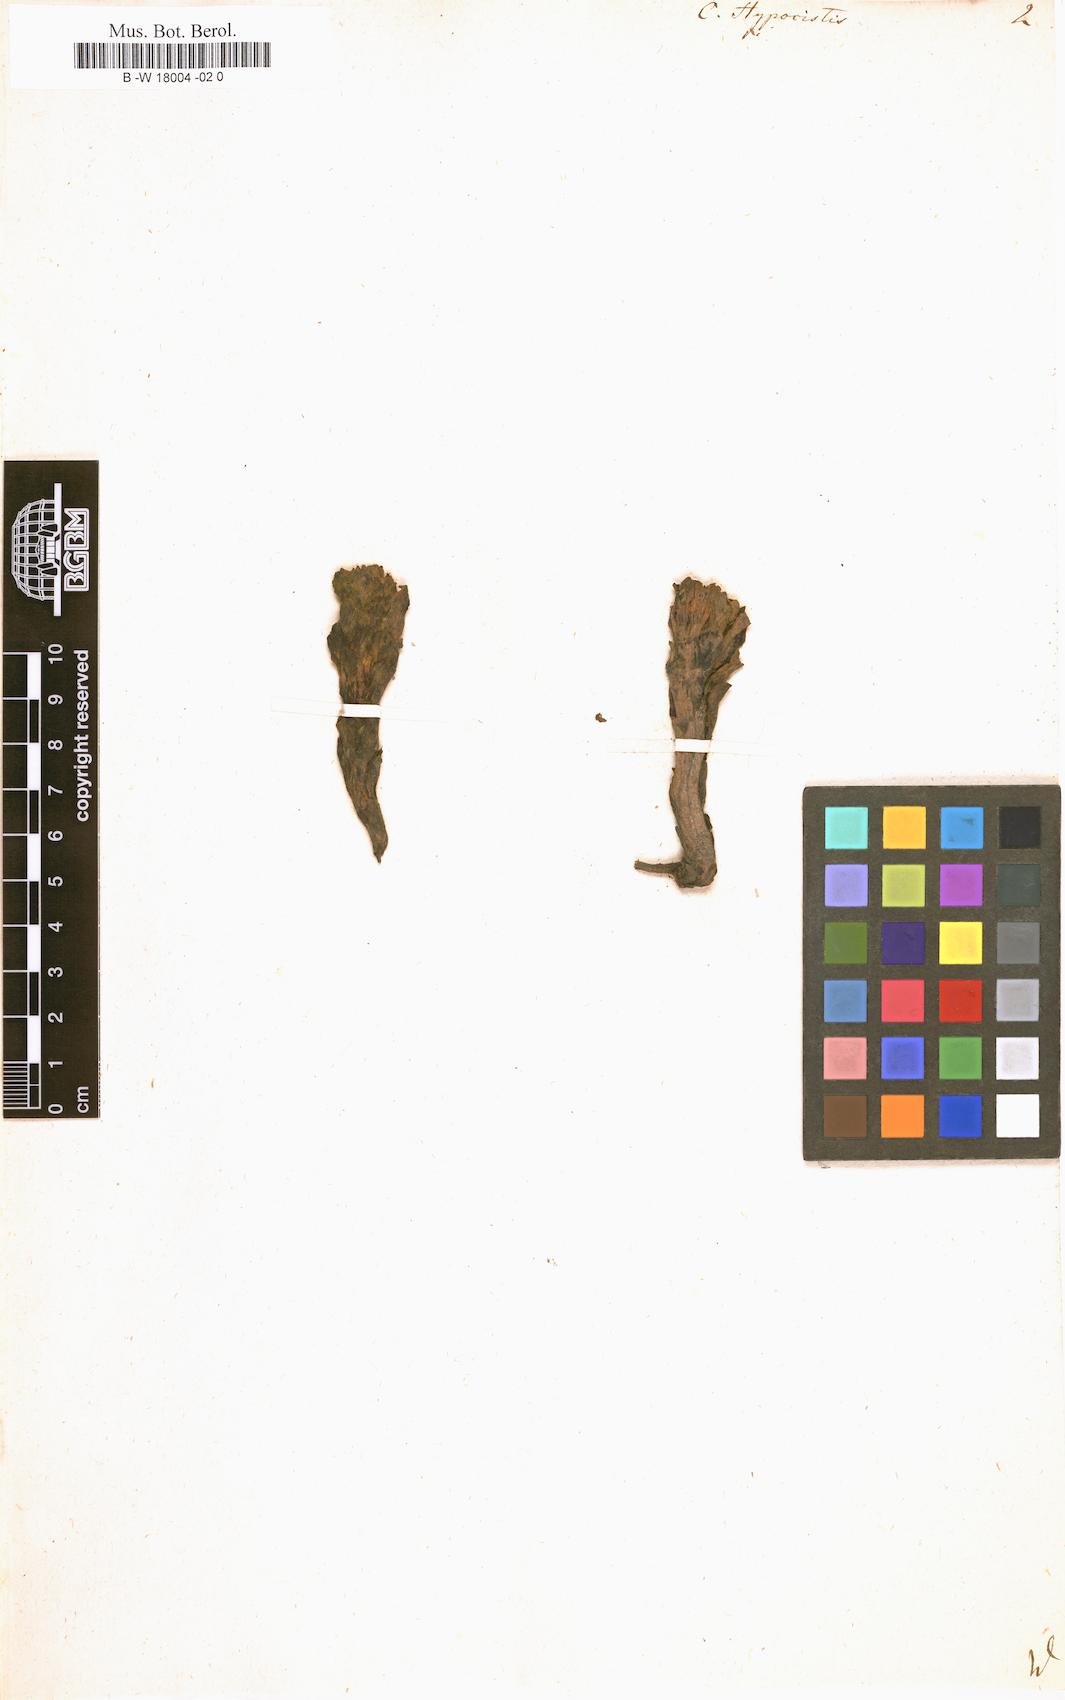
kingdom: Plantae
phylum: Tracheophyta
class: Magnoliopsida
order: Malvales
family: Cytinaceae
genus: Cytinus
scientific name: Cytinus hypocistis
